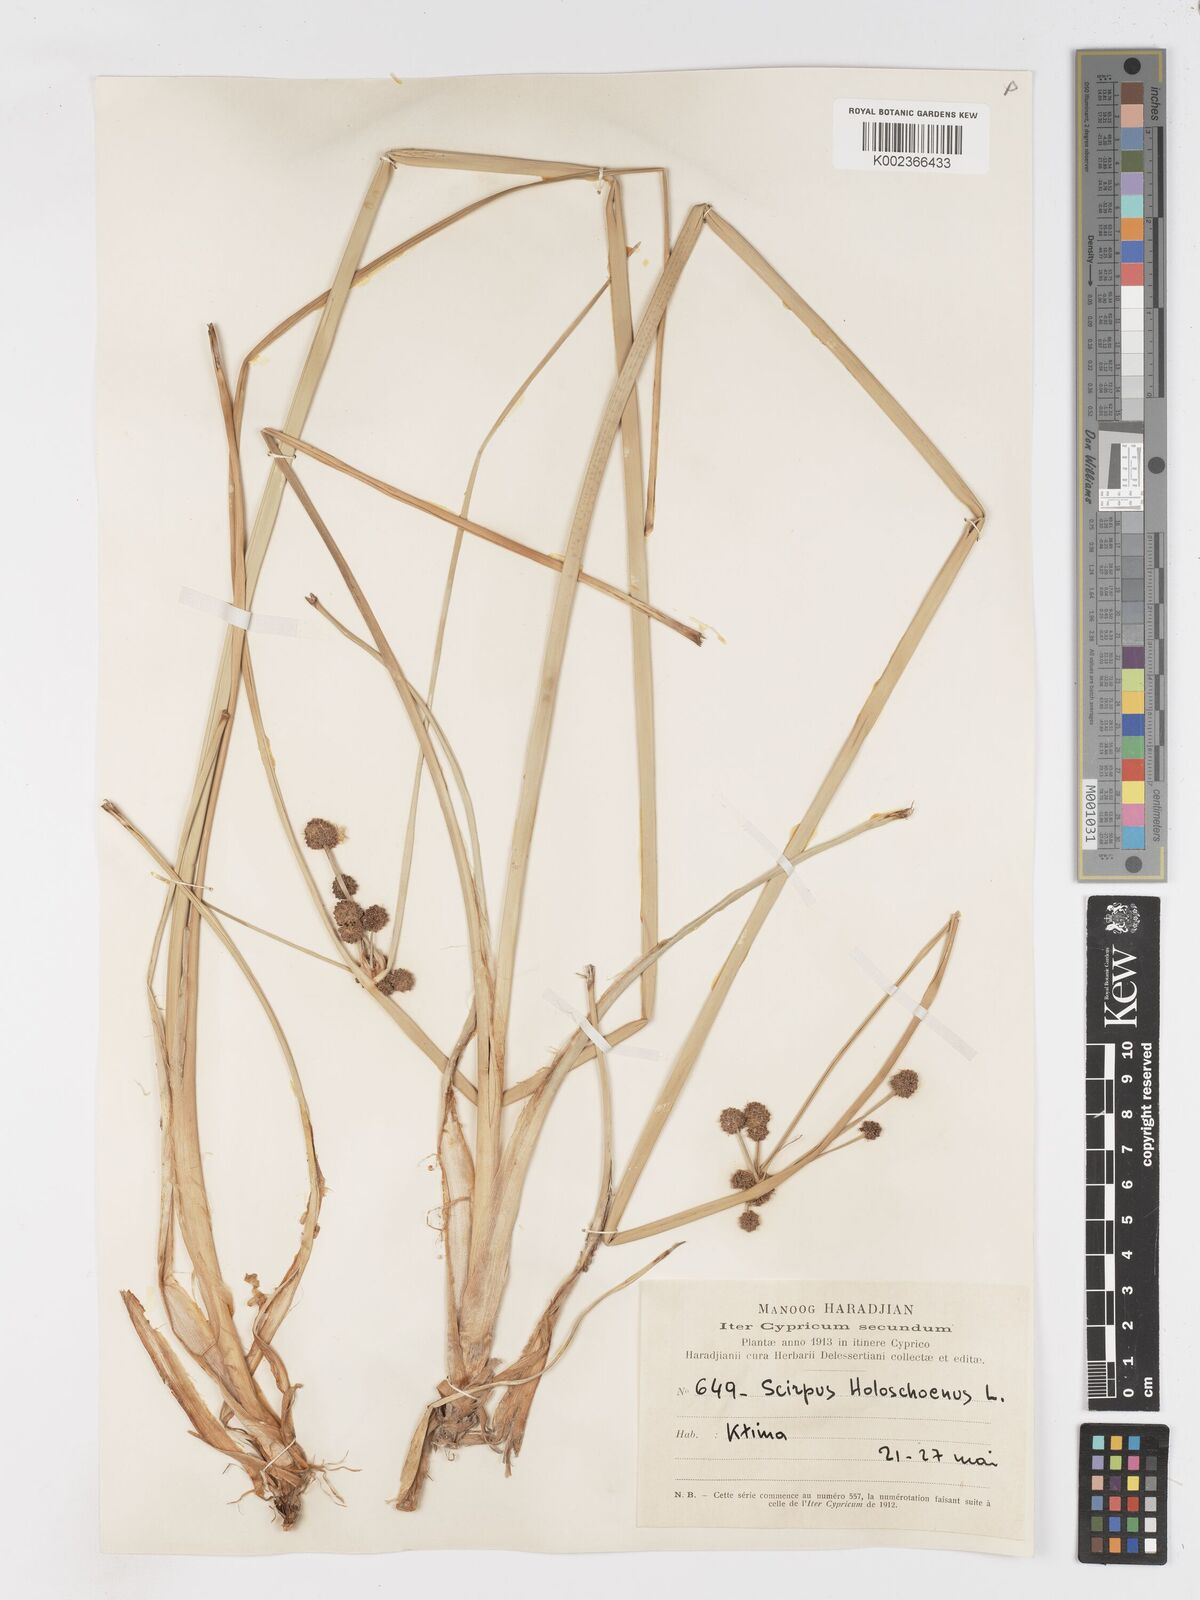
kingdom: Plantae
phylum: Tracheophyta
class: Liliopsida
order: Poales
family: Cyperaceae
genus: Scirpoides
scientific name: Scirpoides holoschoenus
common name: Round-headed club-rush
